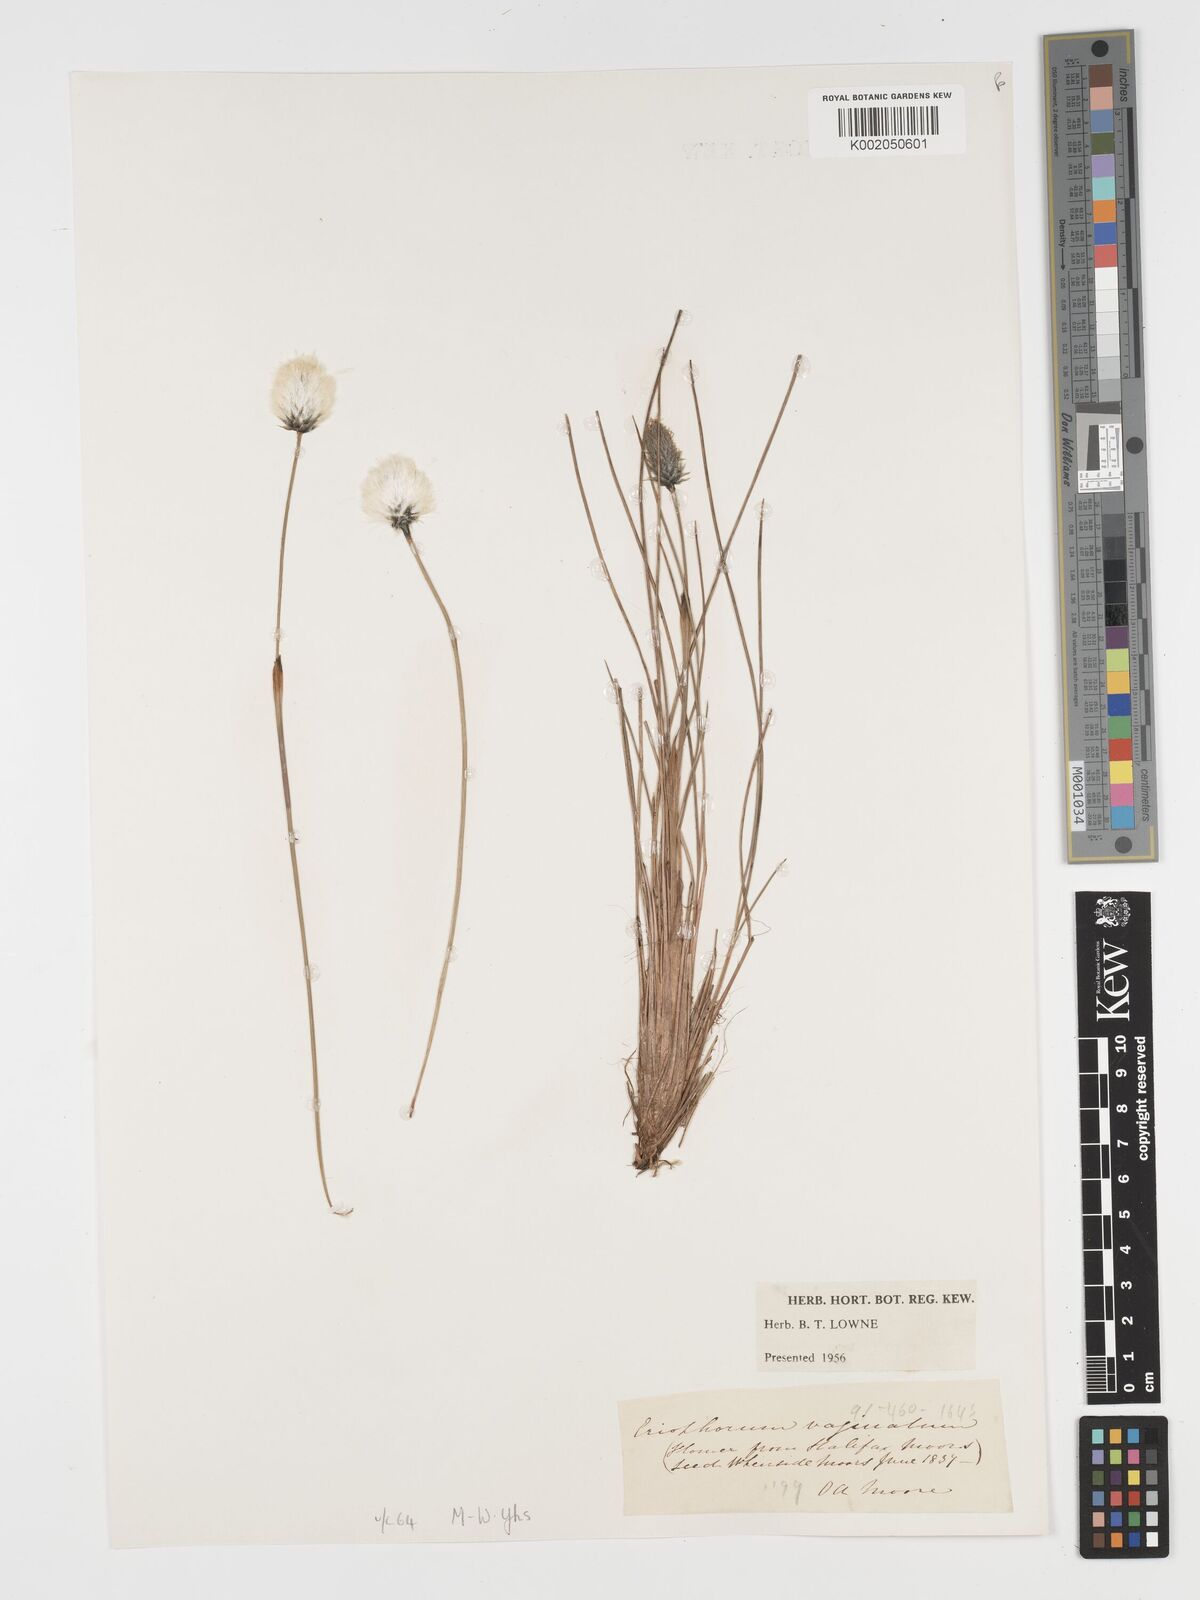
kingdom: Plantae
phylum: Tracheophyta
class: Liliopsida
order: Poales
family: Cyperaceae
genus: Eriophorum
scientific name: Eriophorum vaginatum
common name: Hare's-tail cottongrass
